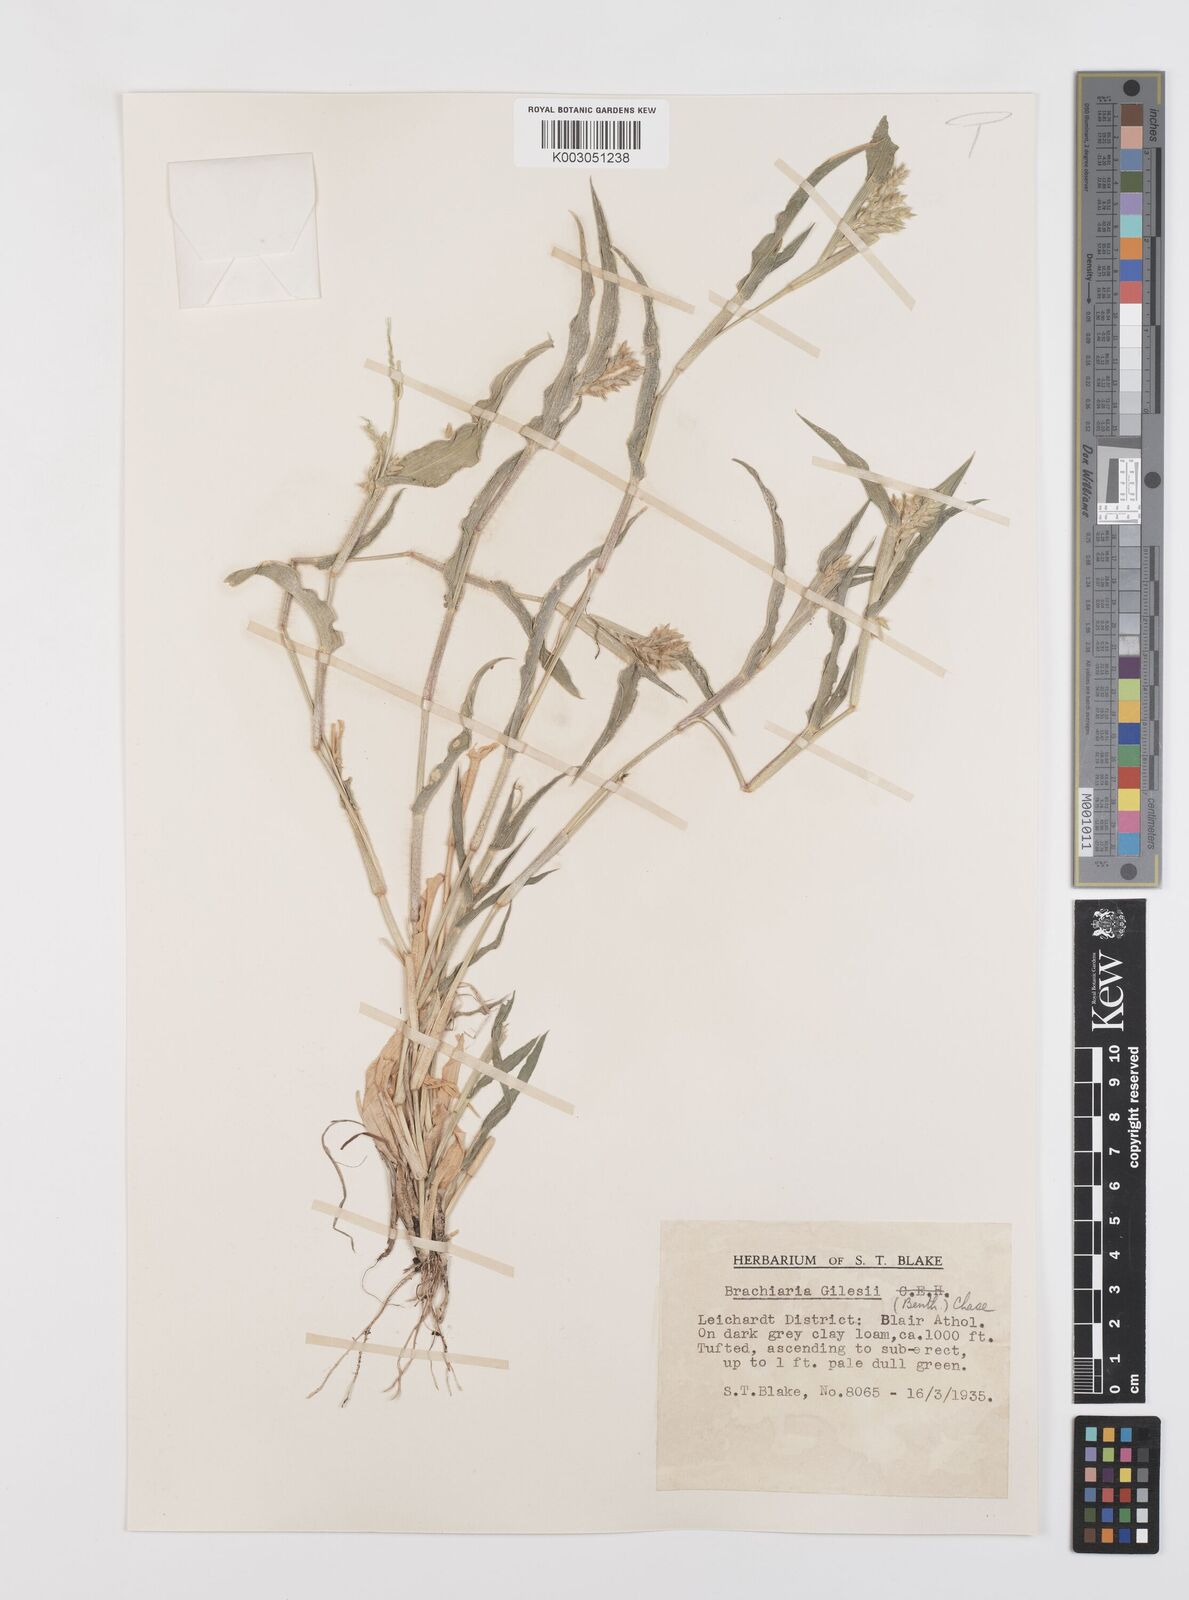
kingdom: Plantae
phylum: Tracheophyta
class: Liliopsida
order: Poales
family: Poaceae
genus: Urochloa
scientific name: Urochloa gilesii
